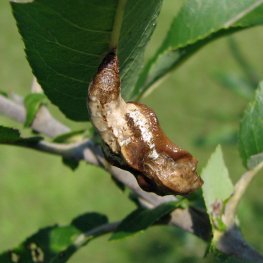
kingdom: Animalia
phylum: Arthropoda
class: Insecta
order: Lepidoptera
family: Nymphalidae
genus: Limenitis
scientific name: Limenitis archippus
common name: Viceroy
